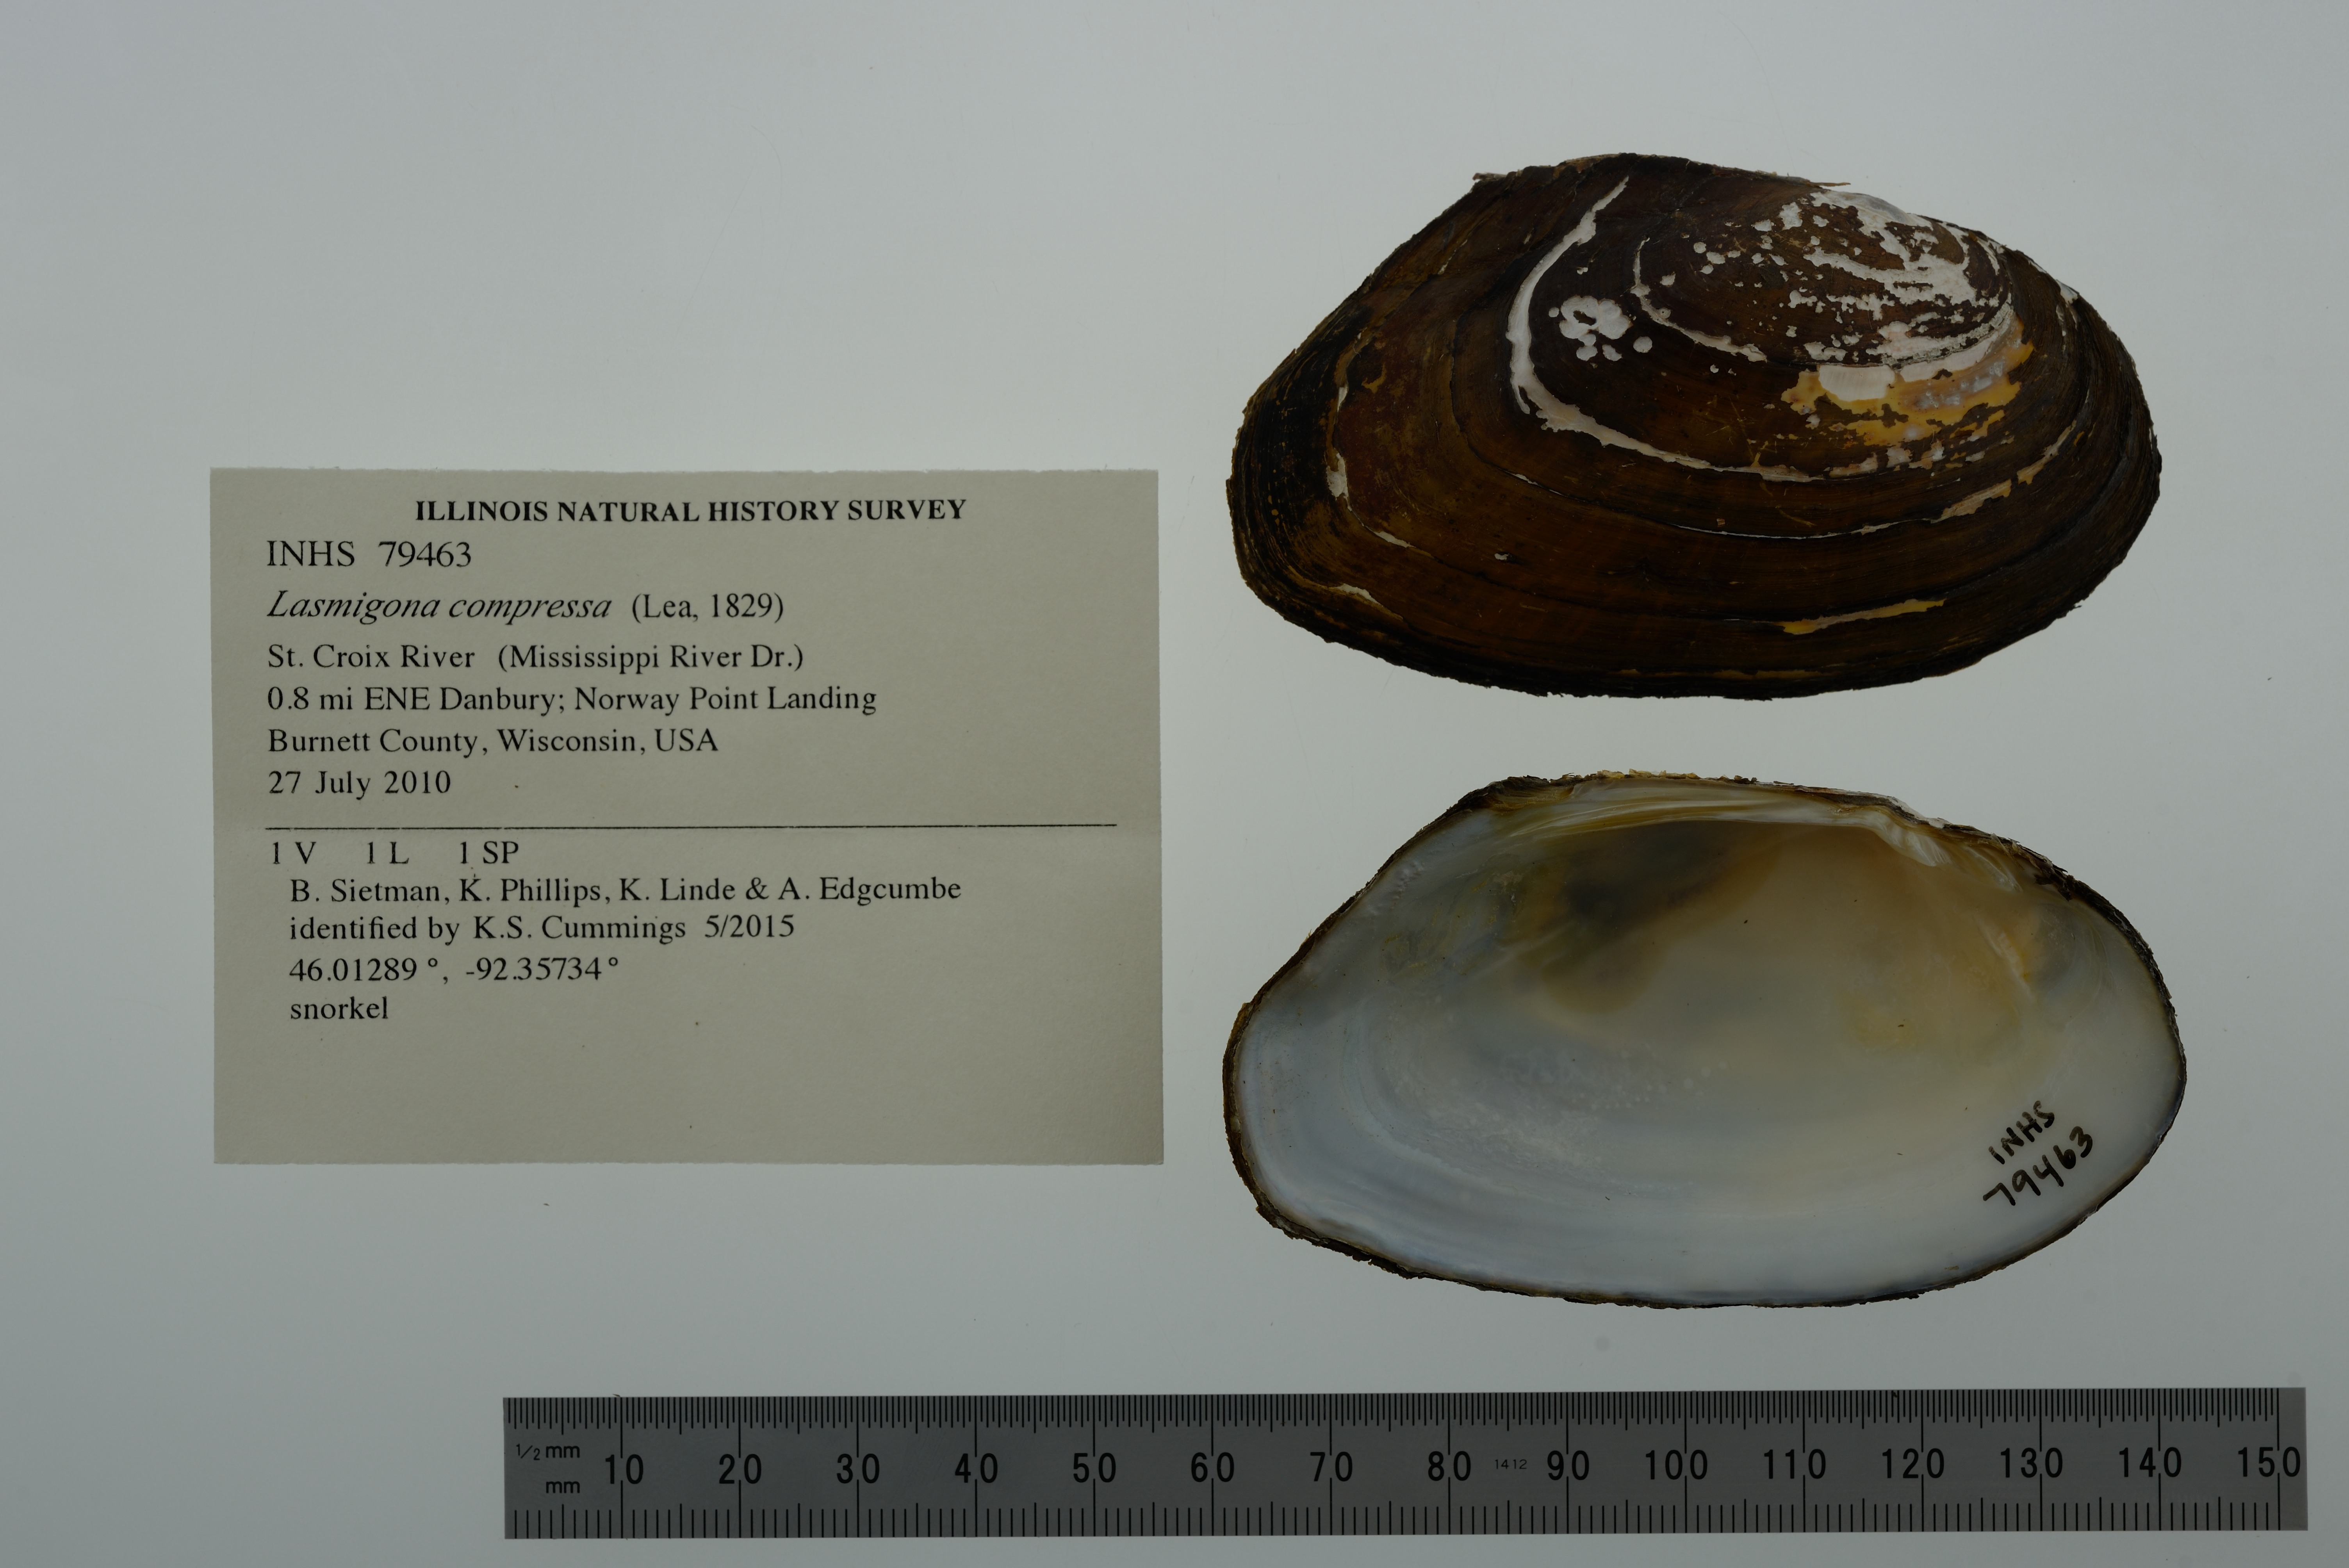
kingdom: Animalia
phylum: Mollusca
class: Bivalvia
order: Unionida
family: Unionidae
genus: Lasmigona
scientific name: Lasmigona compressa
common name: Creek heelsplitter
